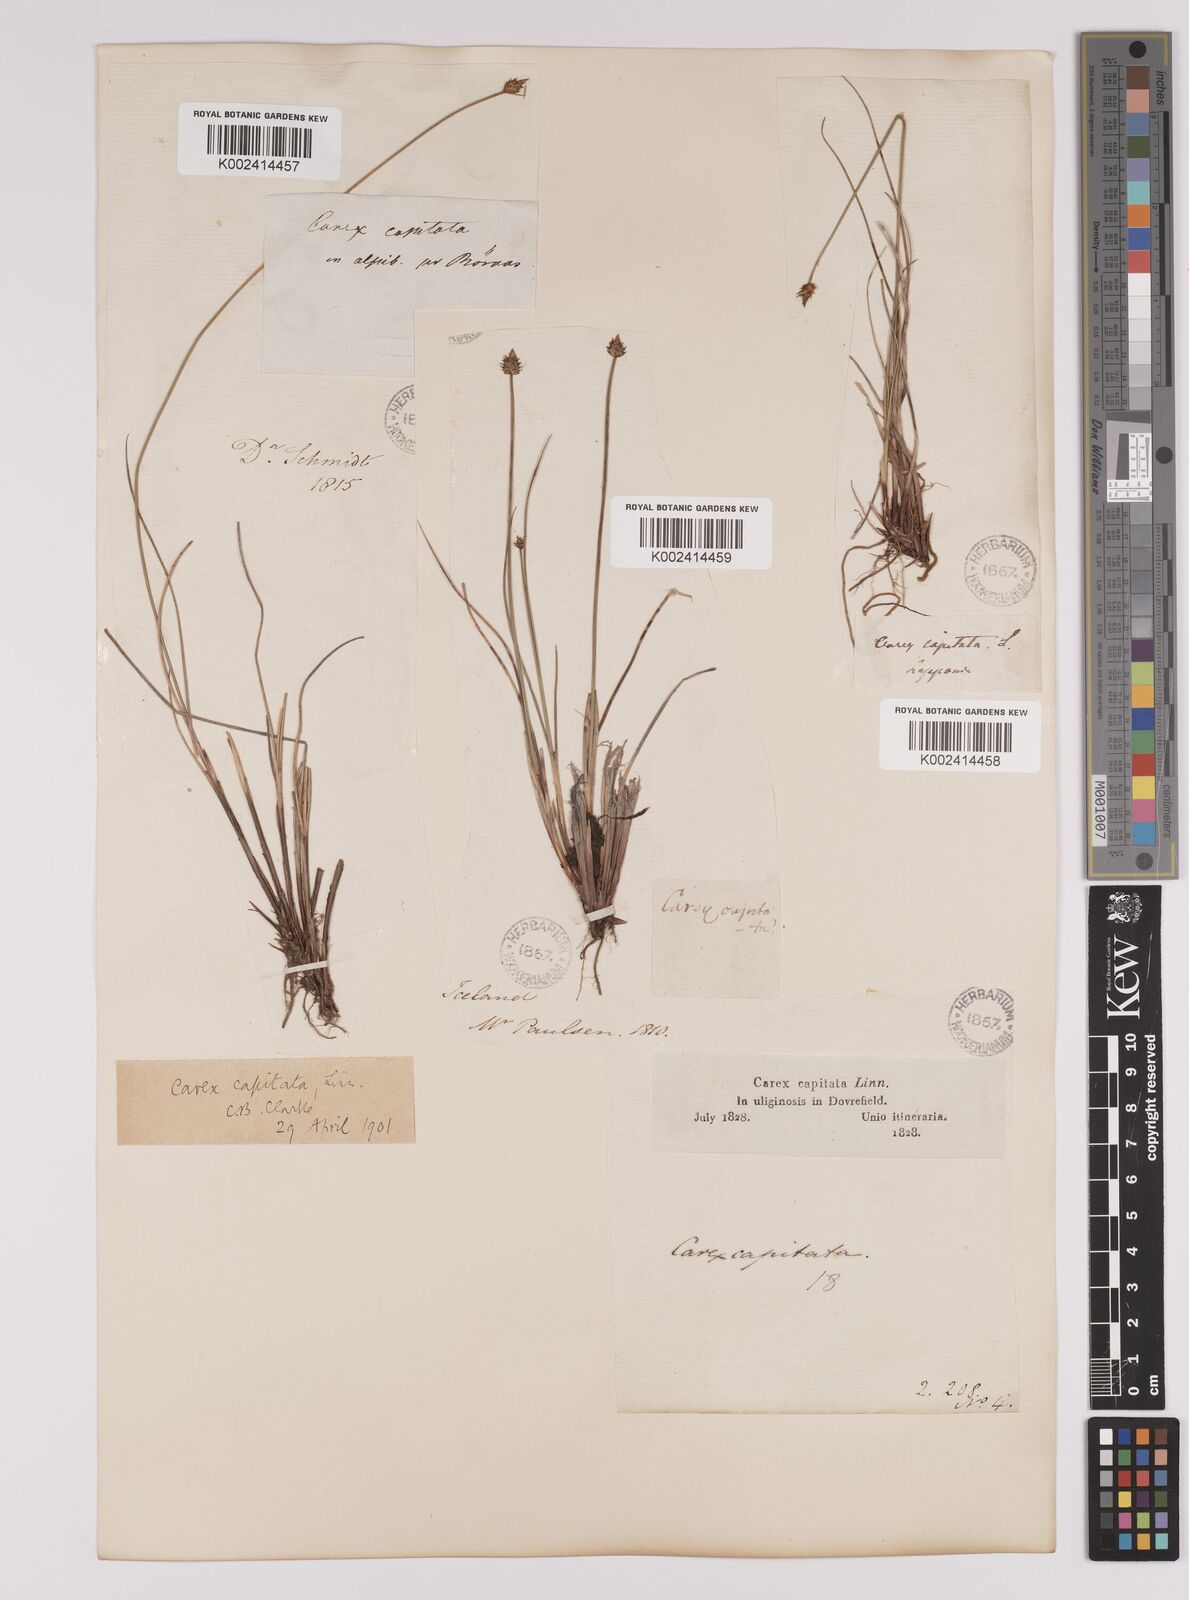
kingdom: Plantae
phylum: Tracheophyta
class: Liliopsida
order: Poales
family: Cyperaceae
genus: Carex
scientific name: Carex capitata
